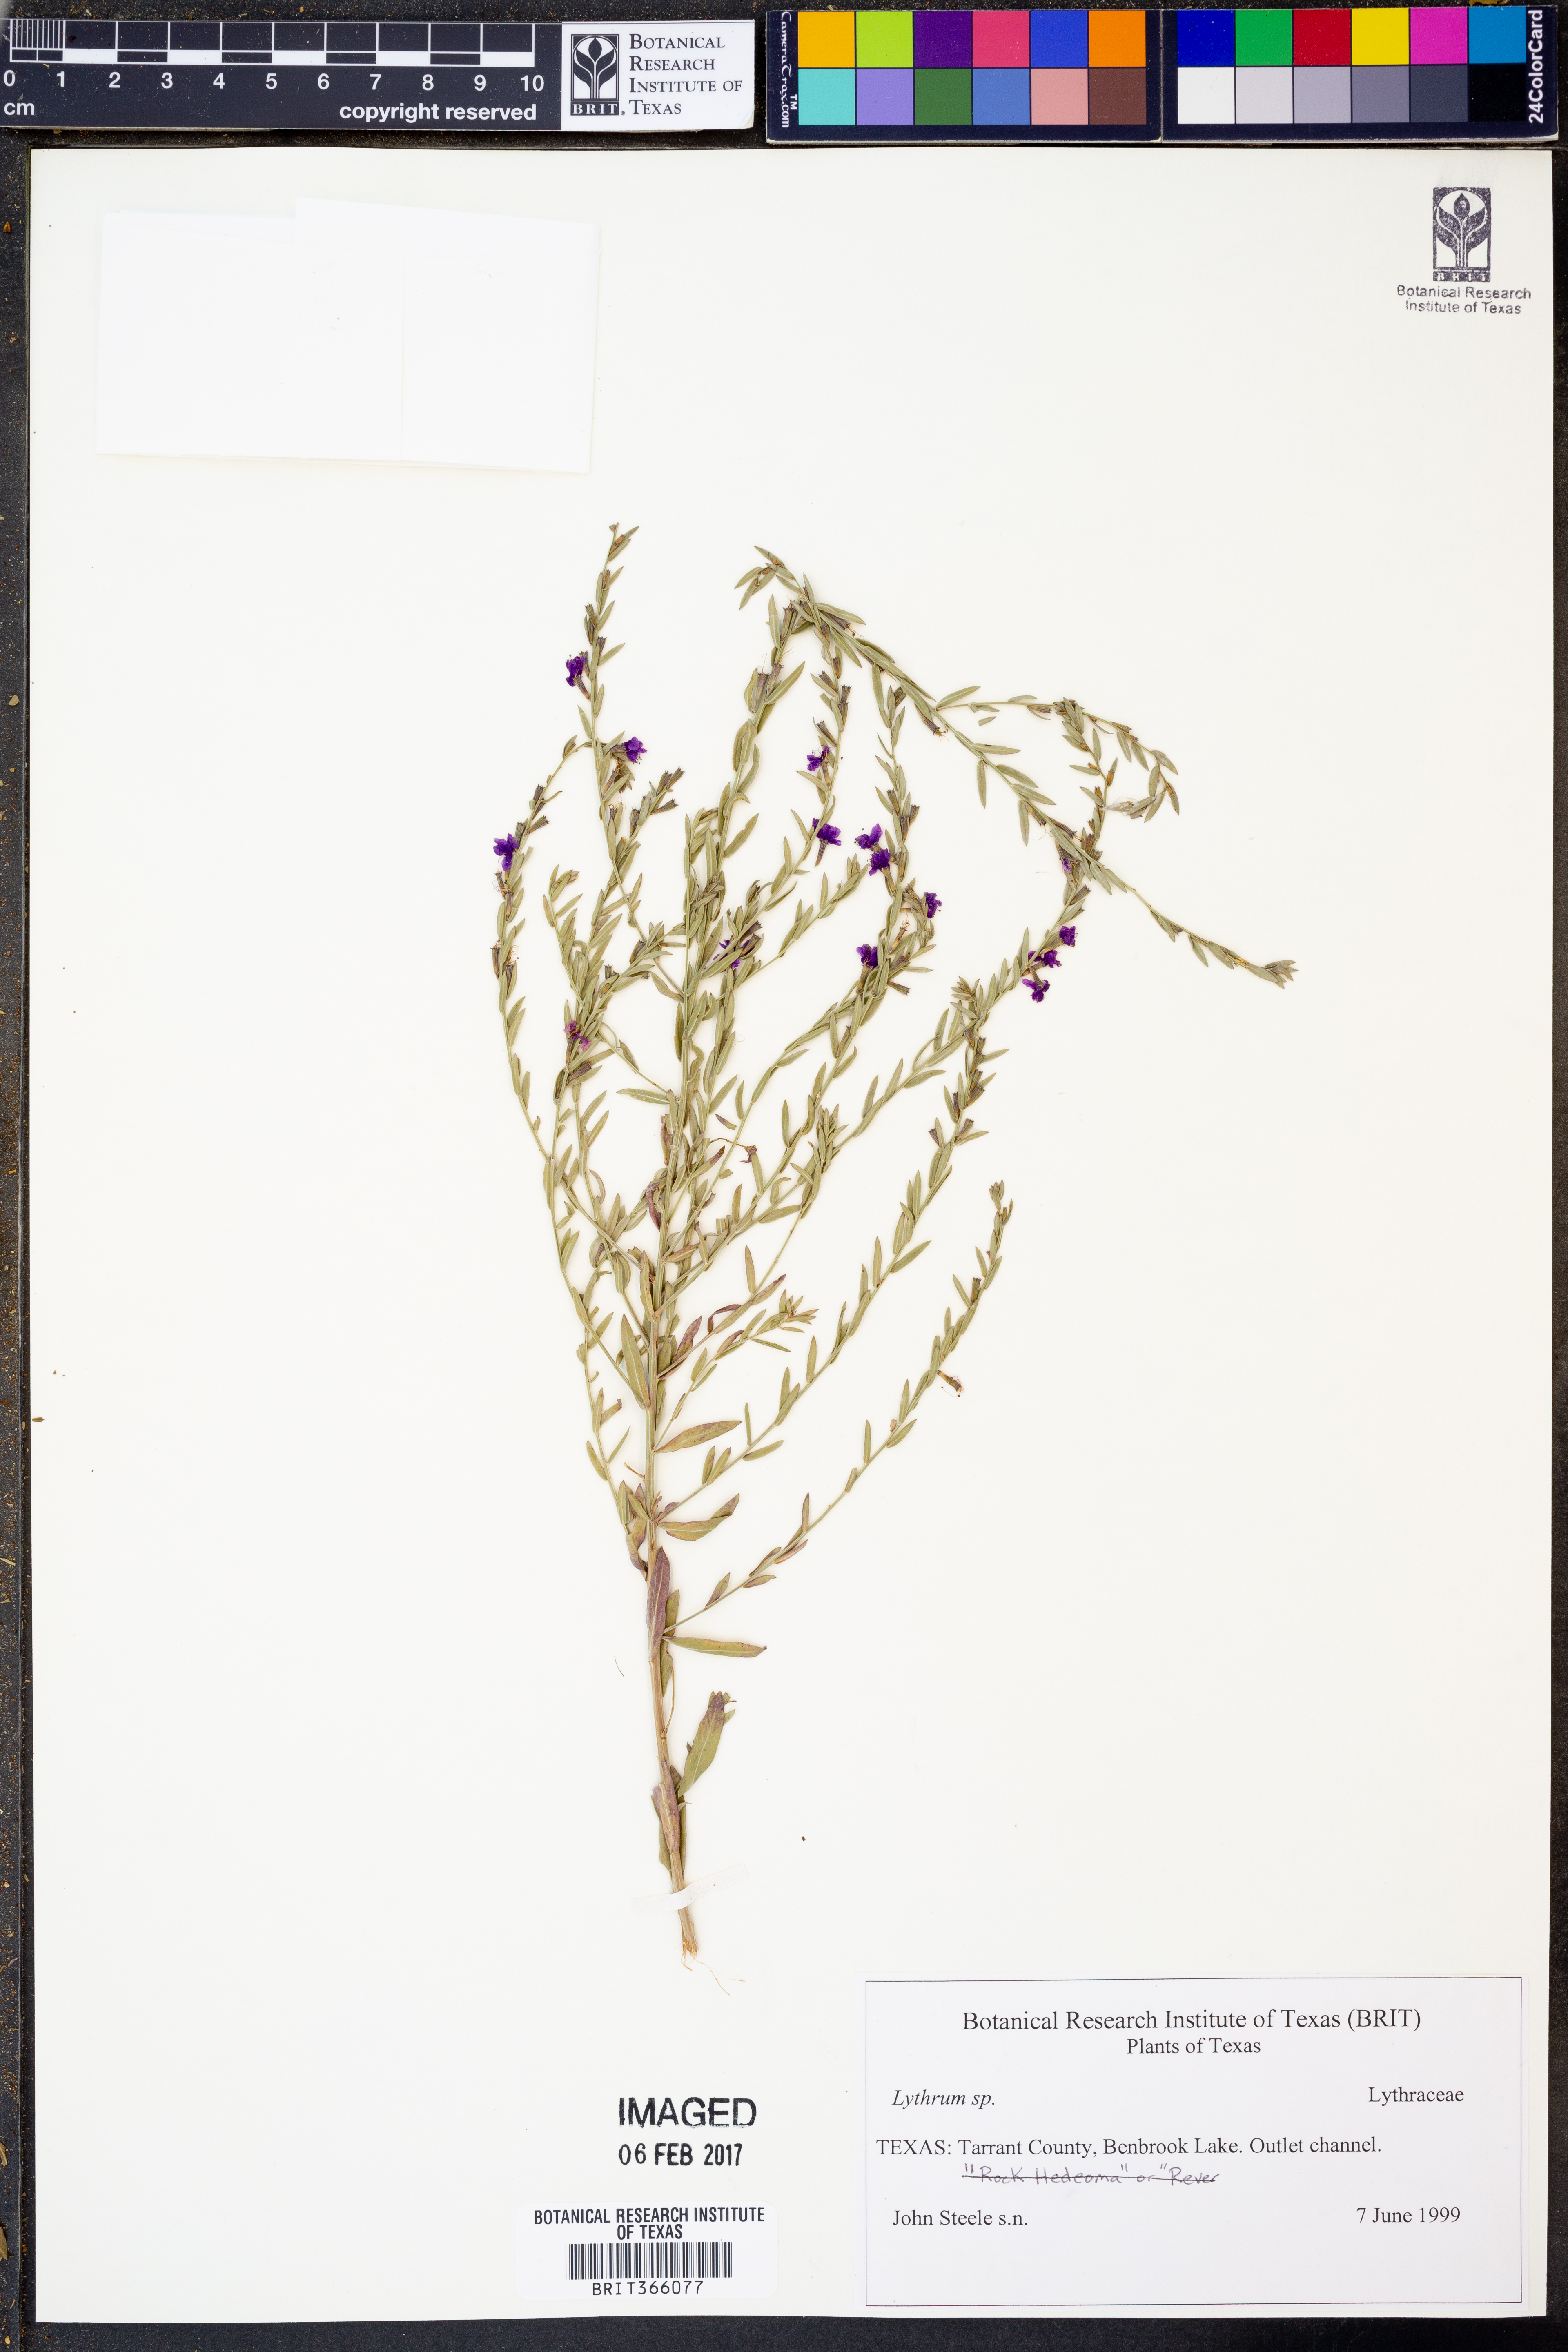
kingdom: Plantae
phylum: Tracheophyta
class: Magnoliopsida
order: Myrtales
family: Lythraceae
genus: Lythrum
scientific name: Lythrum
